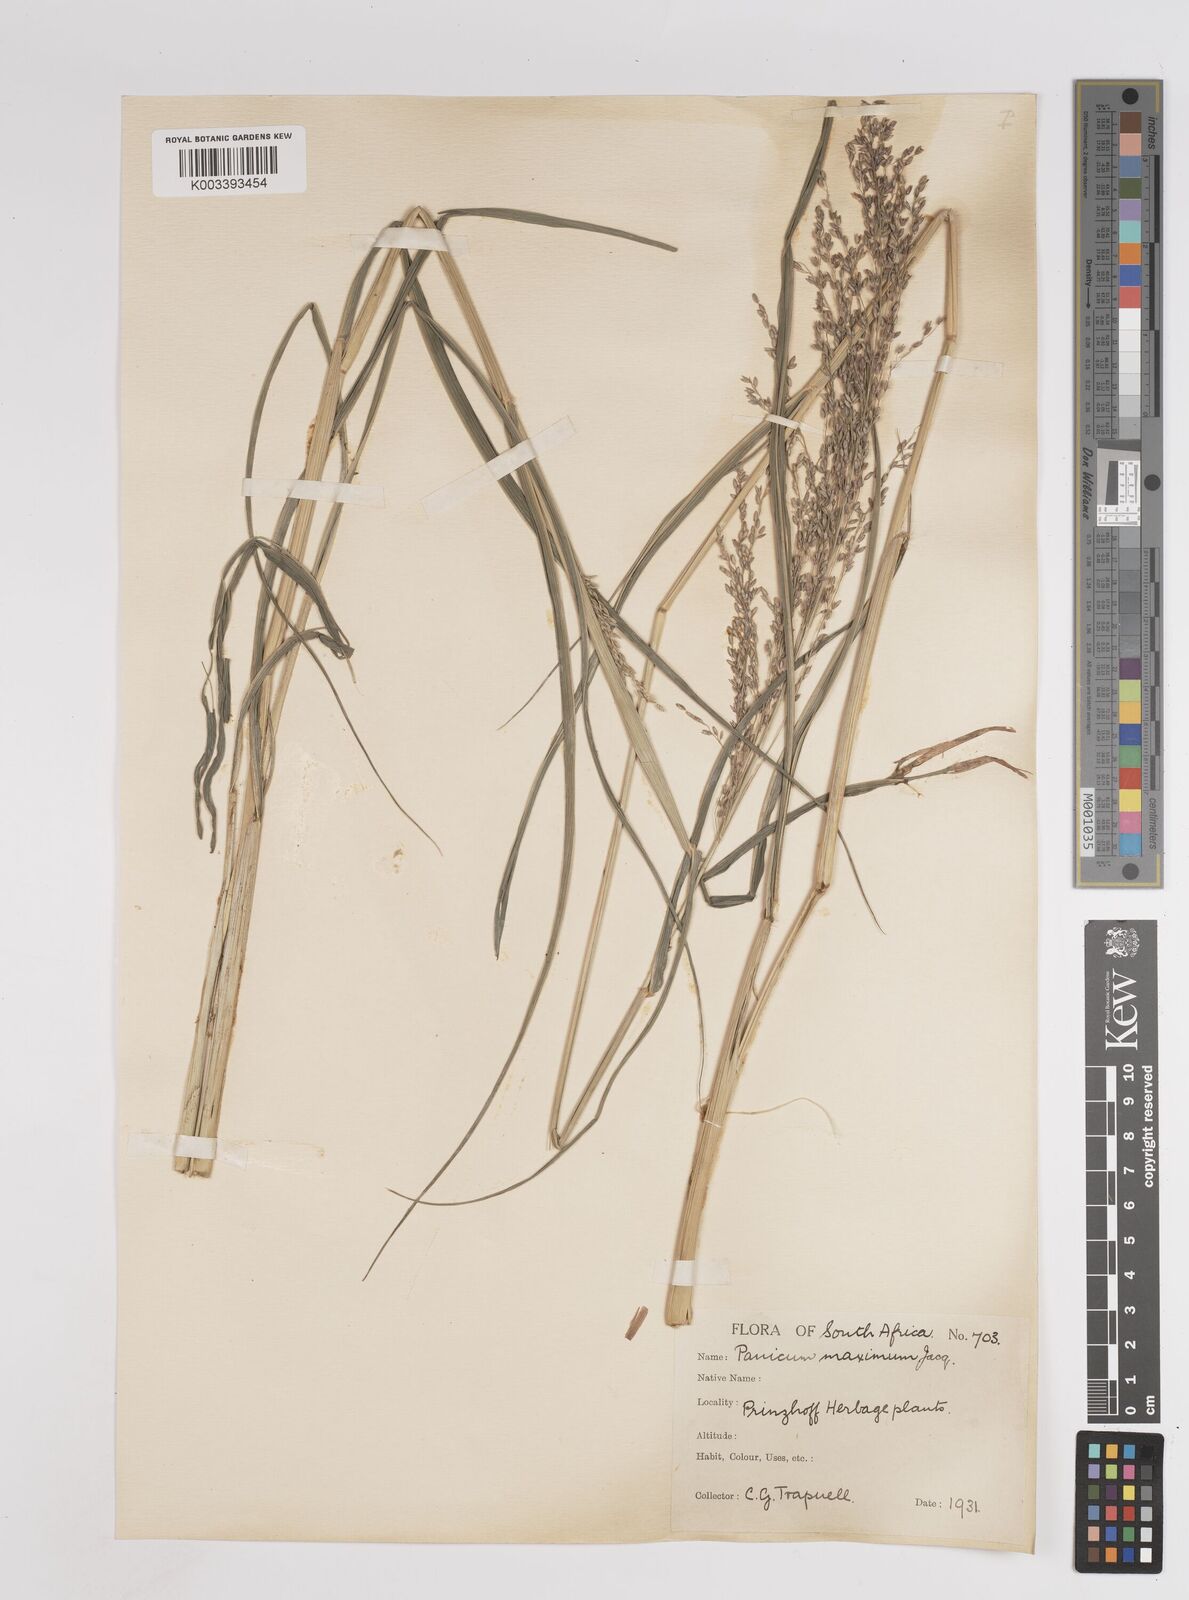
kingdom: Plantae
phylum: Tracheophyta
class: Liliopsida
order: Poales
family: Poaceae
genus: Megathyrsus
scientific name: Megathyrsus maximus
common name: Guineagrass
